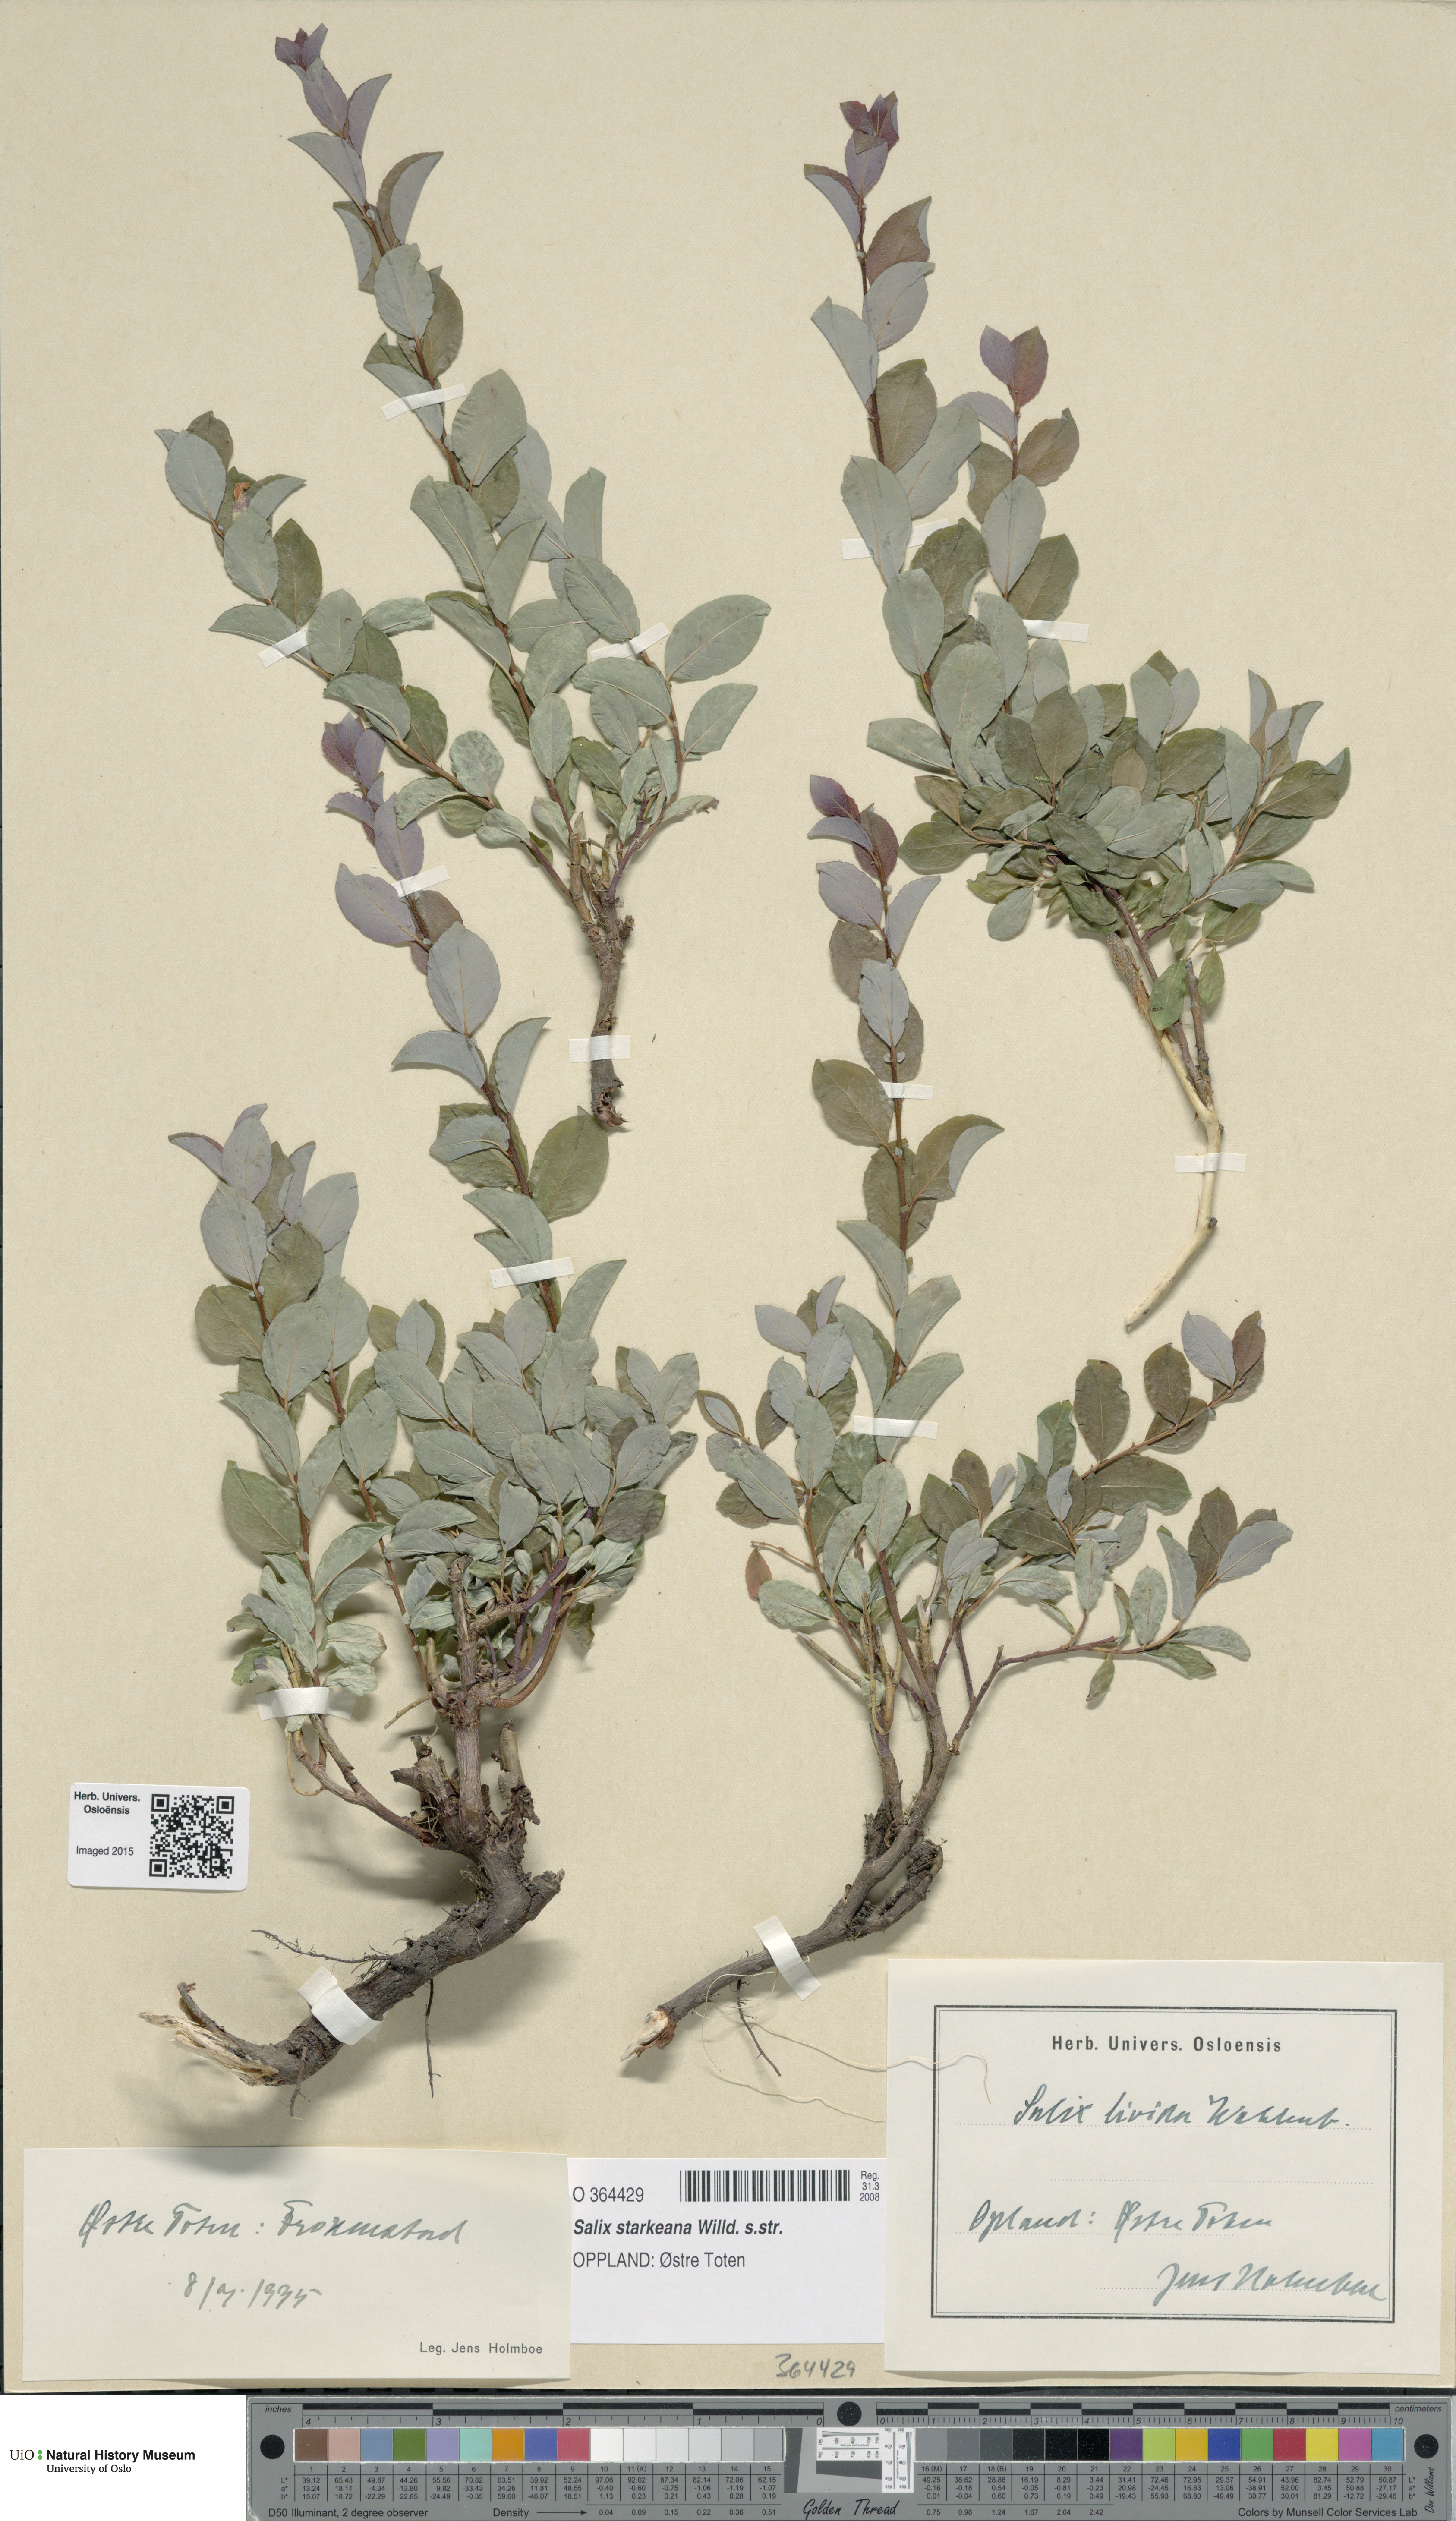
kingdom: Plantae
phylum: Tracheophyta
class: Magnoliopsida
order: Malpighiales
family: Salicaceae
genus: Salix
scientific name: Salix starkeana
